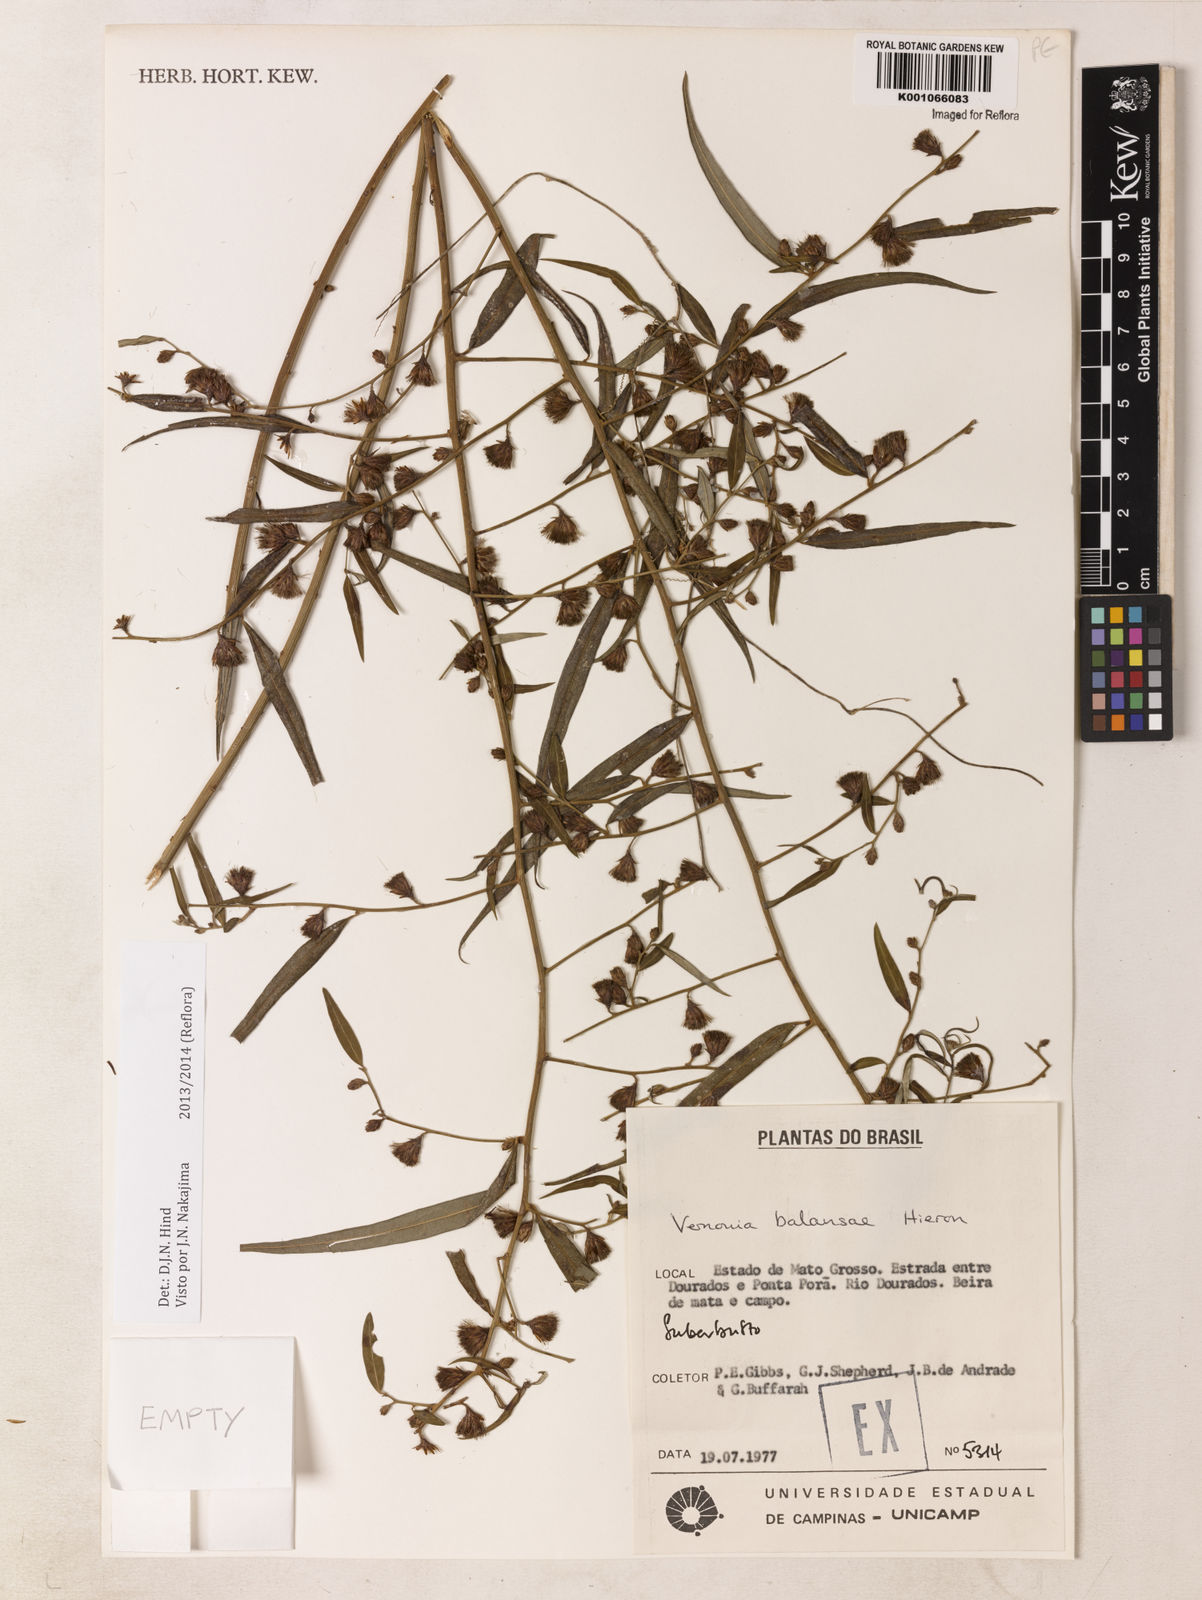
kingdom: Plantae
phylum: Tracheophyta
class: Magnoliopsida
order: Asterales
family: Asteraceae
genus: Vernonia
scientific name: Vernonia balansae
